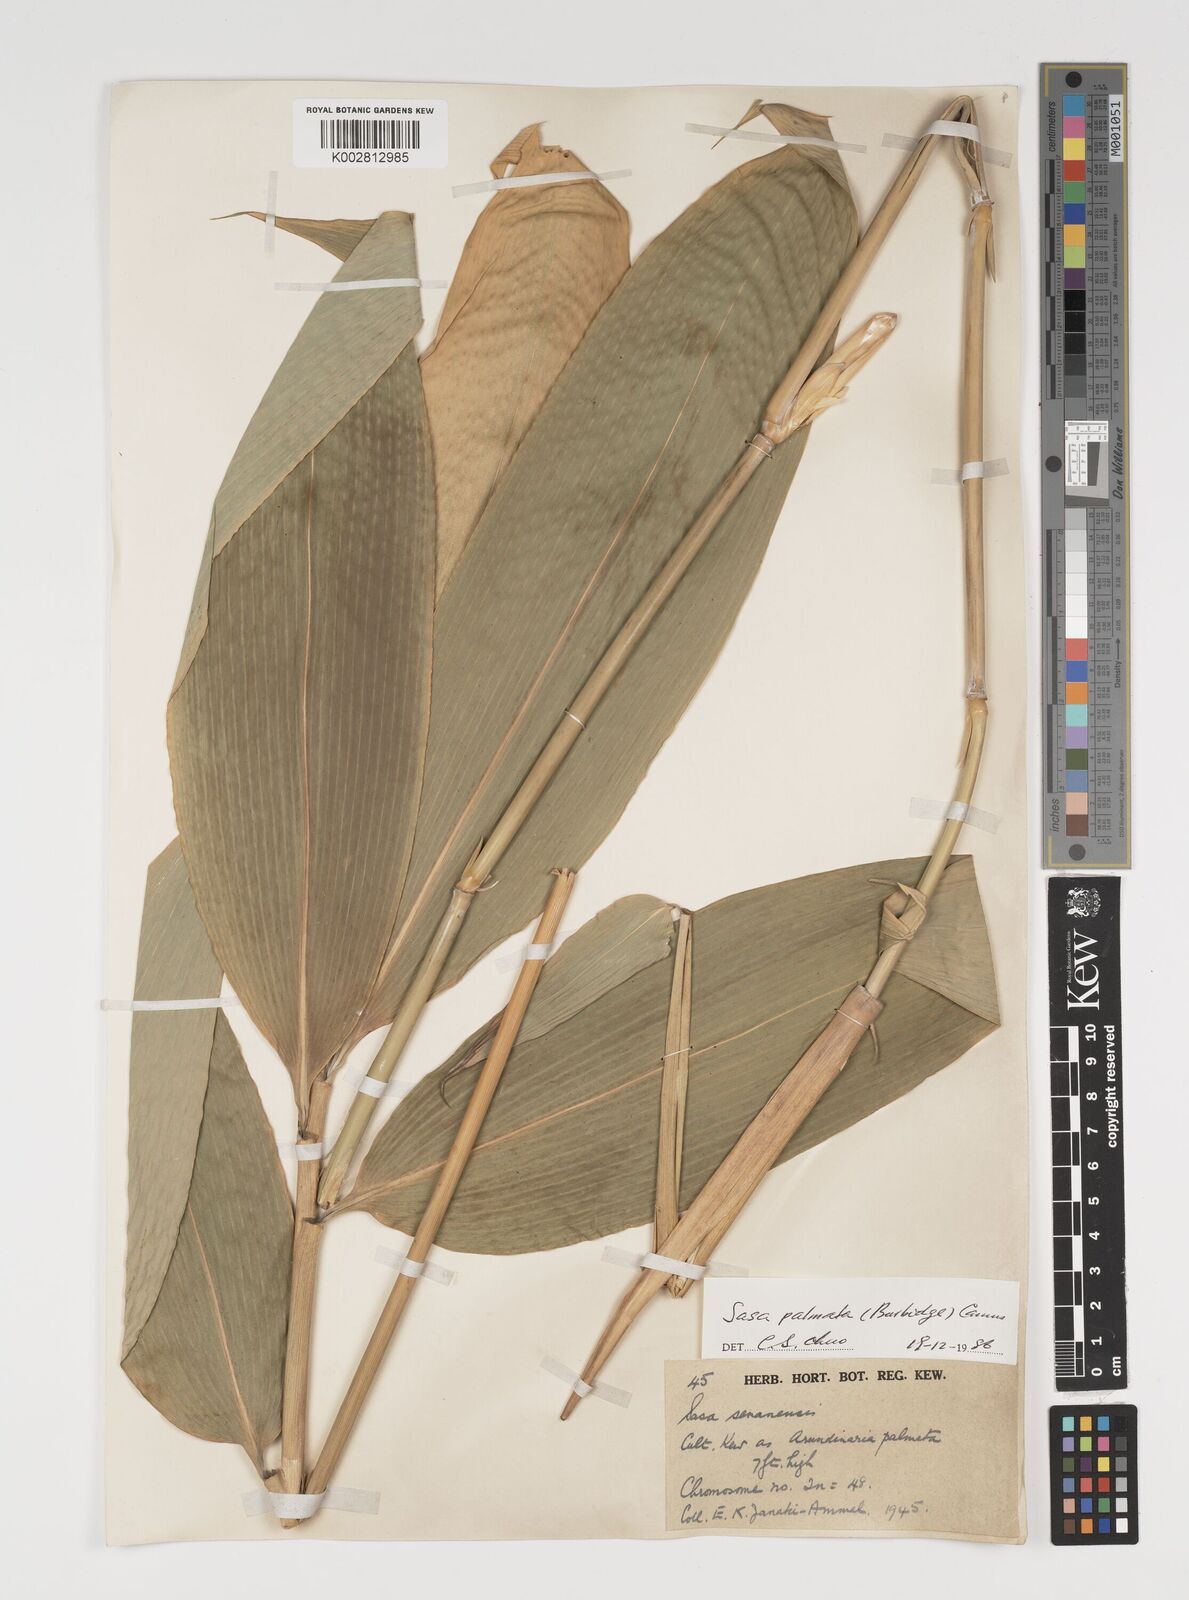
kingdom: Plantae
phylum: Tracheophyta
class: Liliopsida
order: Poales
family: Poaceae
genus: Sasa
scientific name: Sasa palmata
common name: Broad-leaved bamboo
